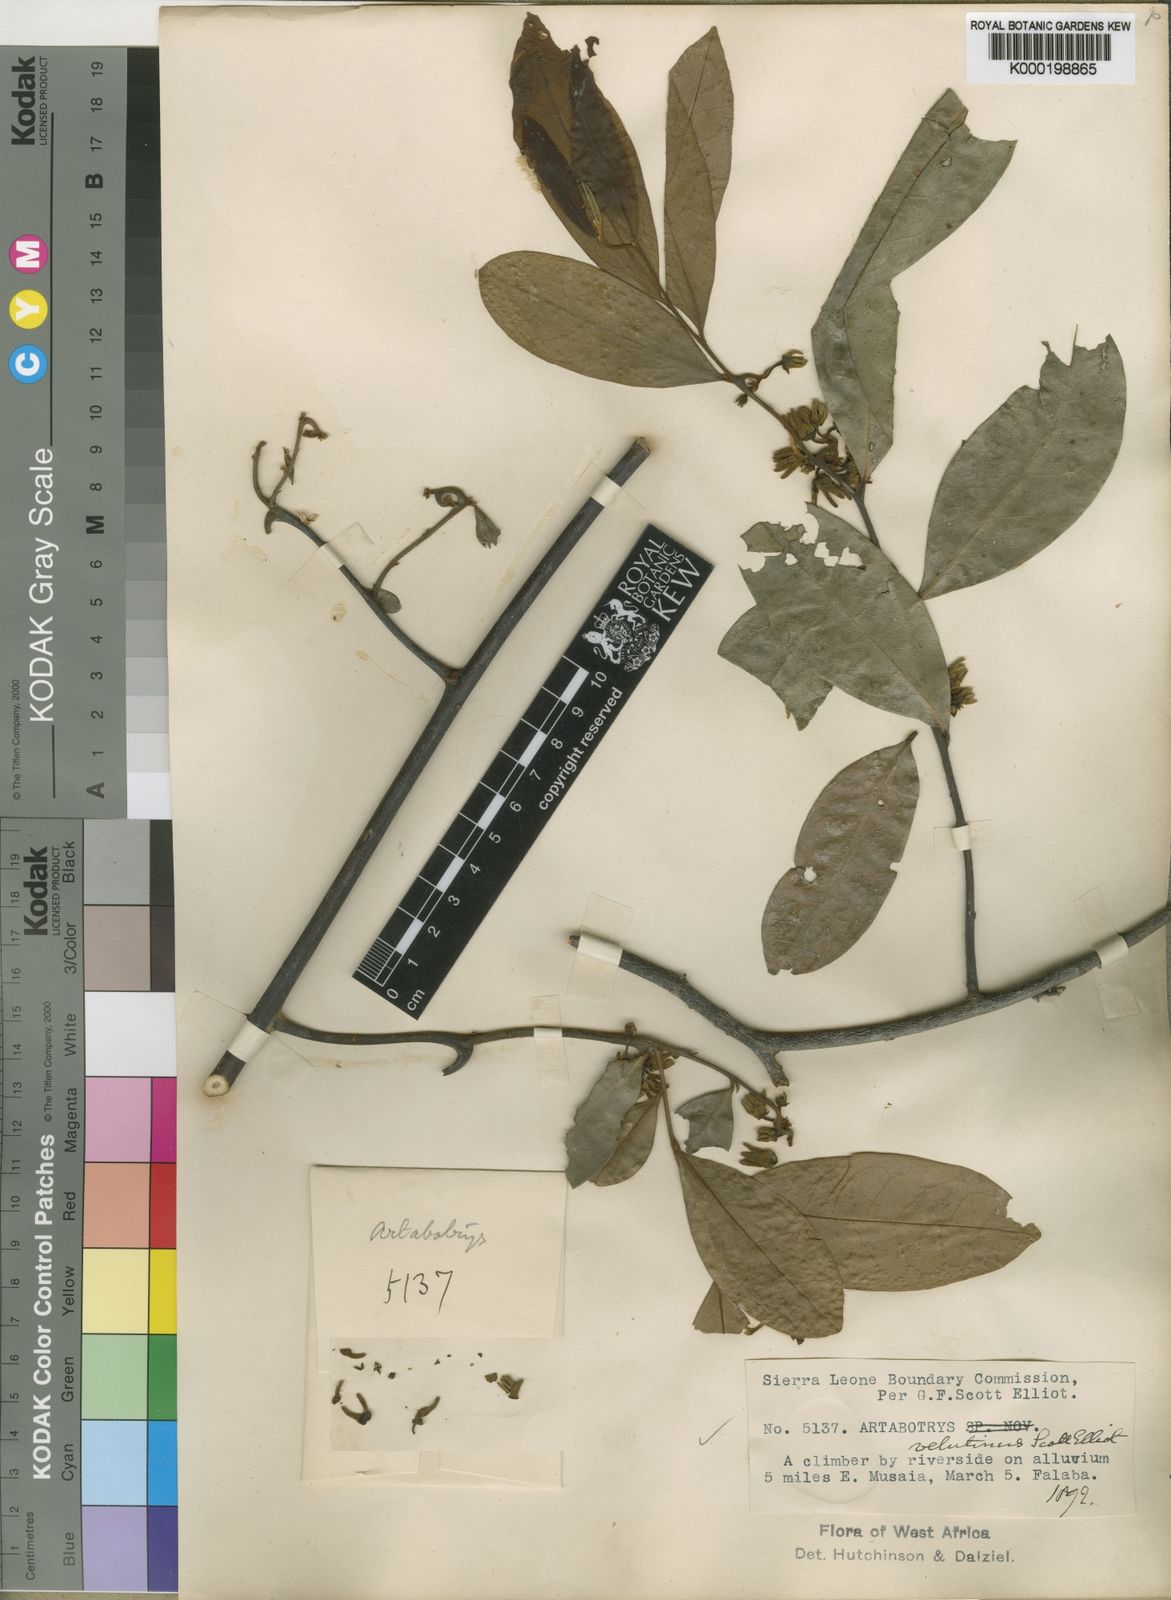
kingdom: Plantae
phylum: Tracheophyta
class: Magnoliopsida
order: Magnoliales
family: Annonaceae
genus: Artabotrys
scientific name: Artabotrys velutinus
